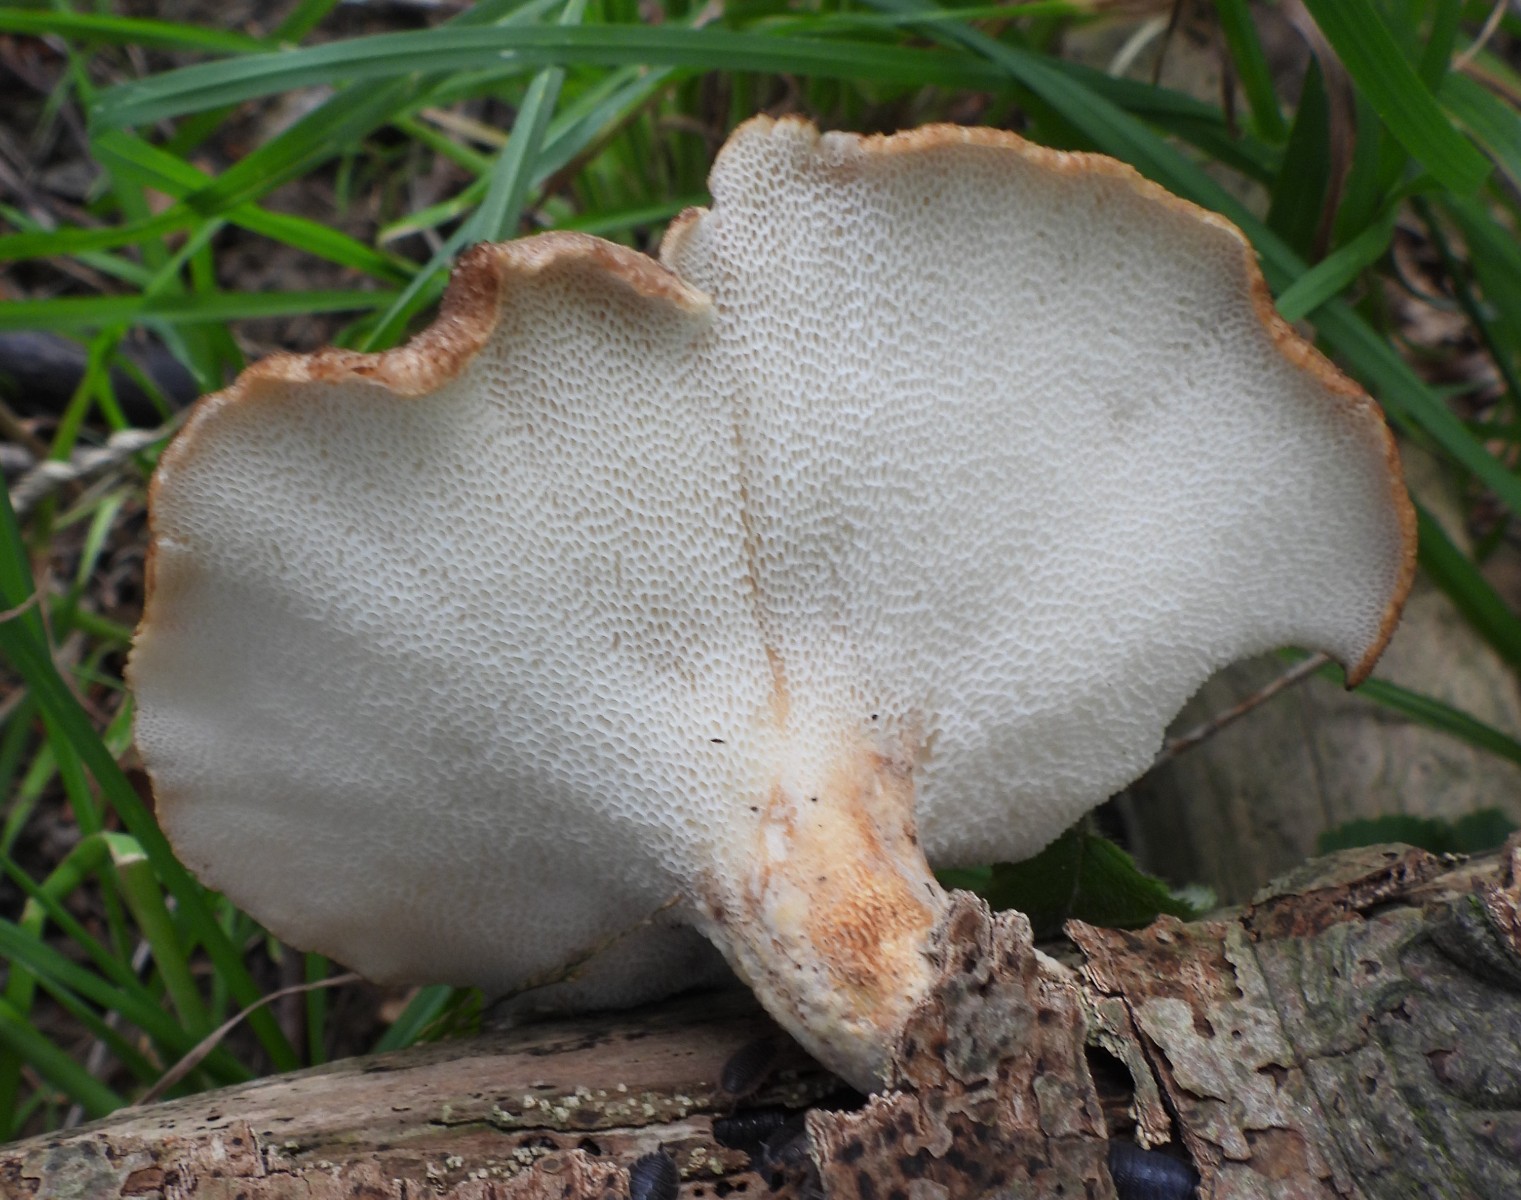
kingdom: Fungi
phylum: Basidiomycota
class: Agaricomycetes
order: Polyporales
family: Polyporaceae
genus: Cerioporus
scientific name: Cerioporus squamosus
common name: skællet stilkporesvamp
